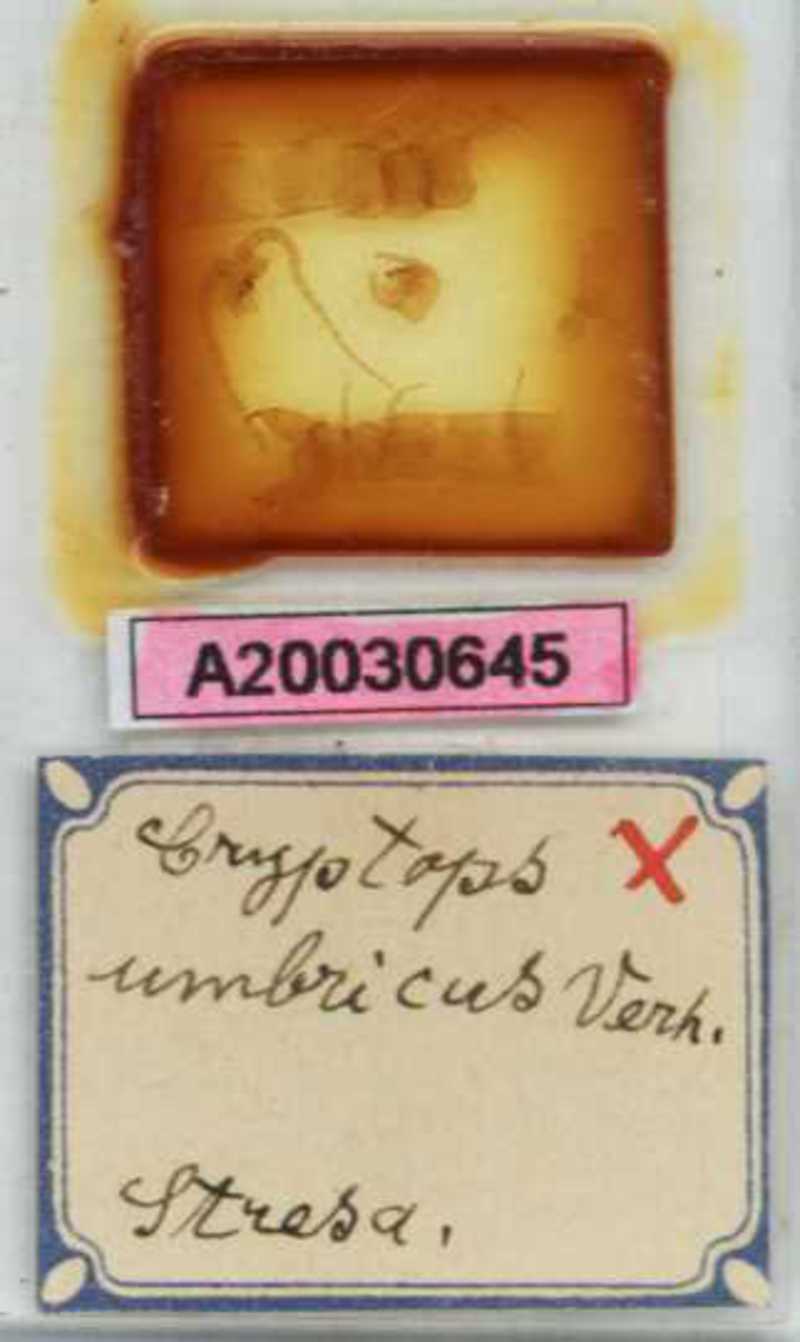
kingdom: Animalia
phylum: Arthropoda
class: Chilopoda
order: Scolopendromorpha
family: Cryptopidae
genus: Cryptops
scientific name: Cryptops umbricus
